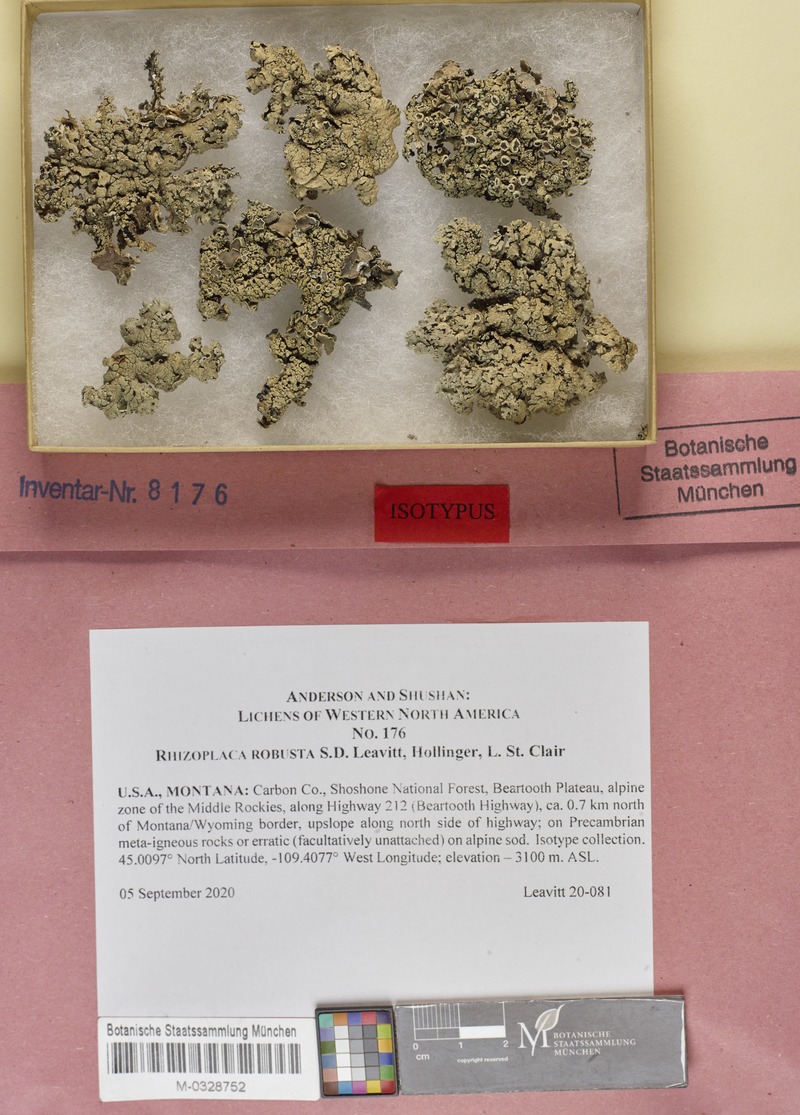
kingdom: Fungi
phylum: Ascomycota
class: Lecanoromycetes
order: Lecanorales
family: Lecanoraceae
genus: Rhizoplaca
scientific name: Rhizoplaca robusta
